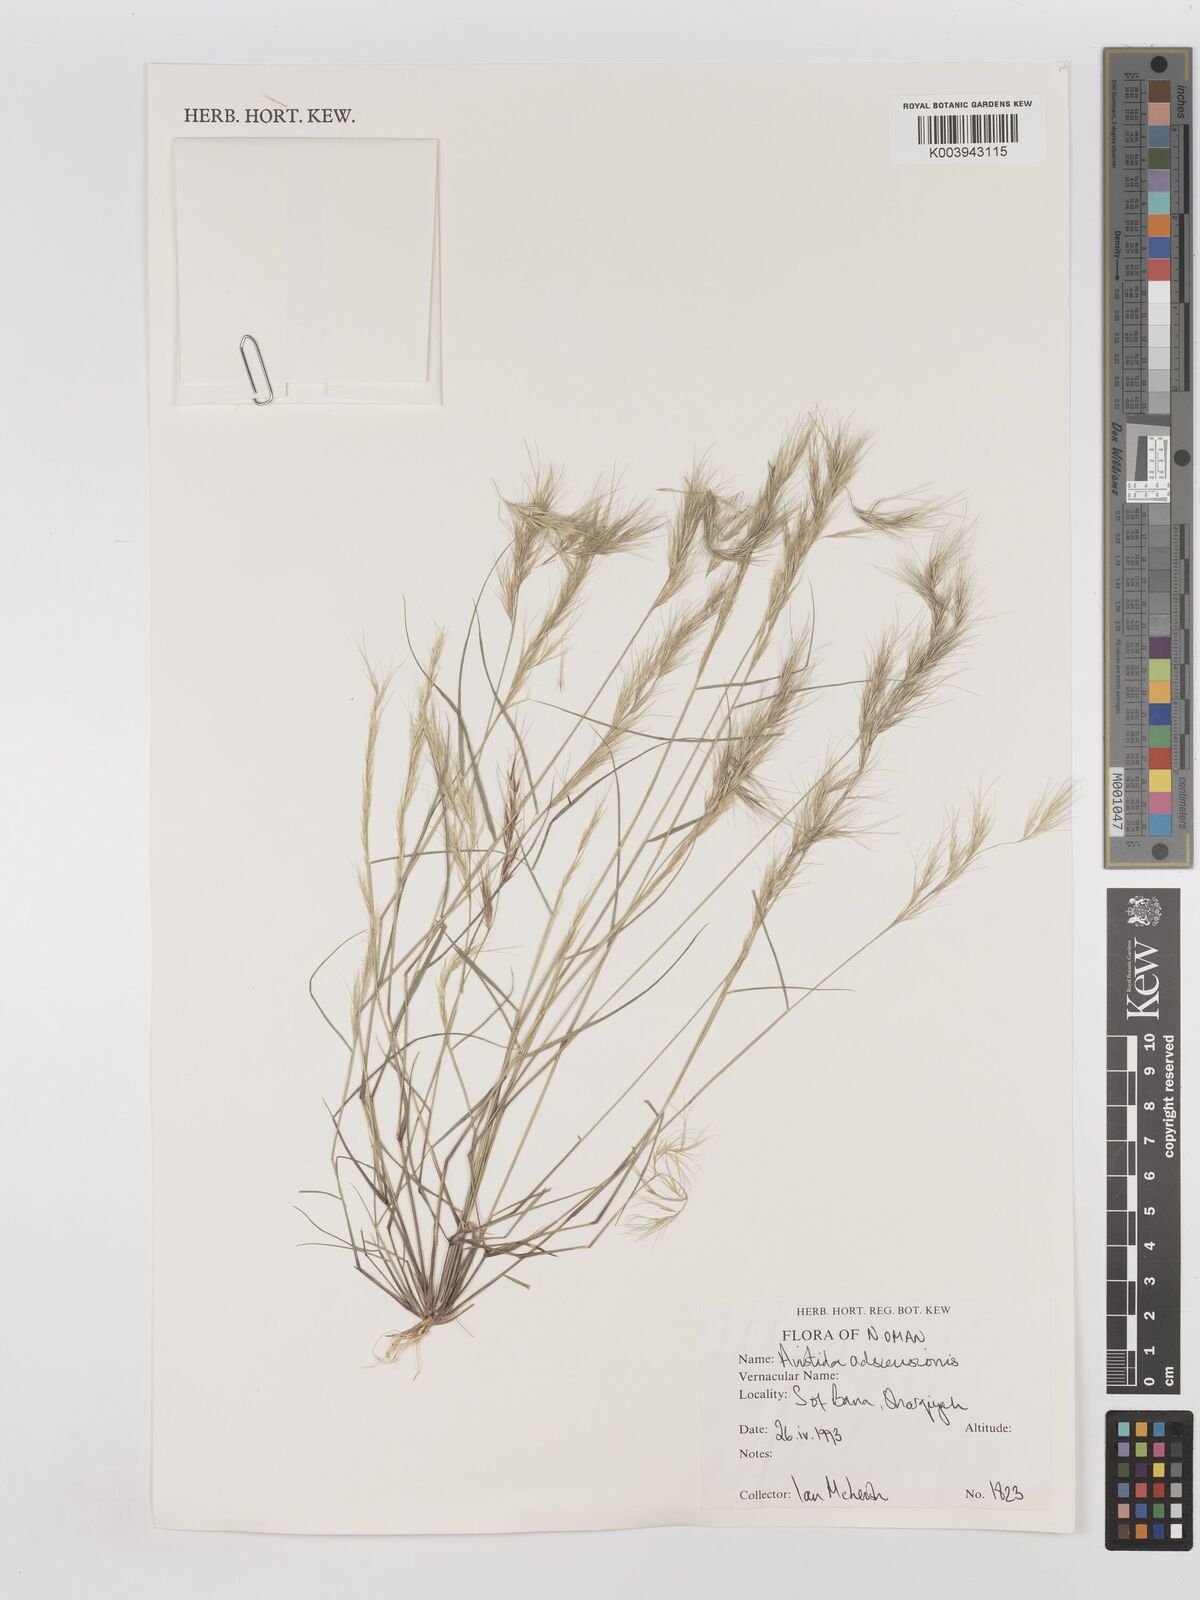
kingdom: Plantae
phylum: Tracheophyta
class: Liliopsida
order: Poales
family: Poaceae
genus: Aristida
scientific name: Aristida adscensionis
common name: Sixweeks threeawn
